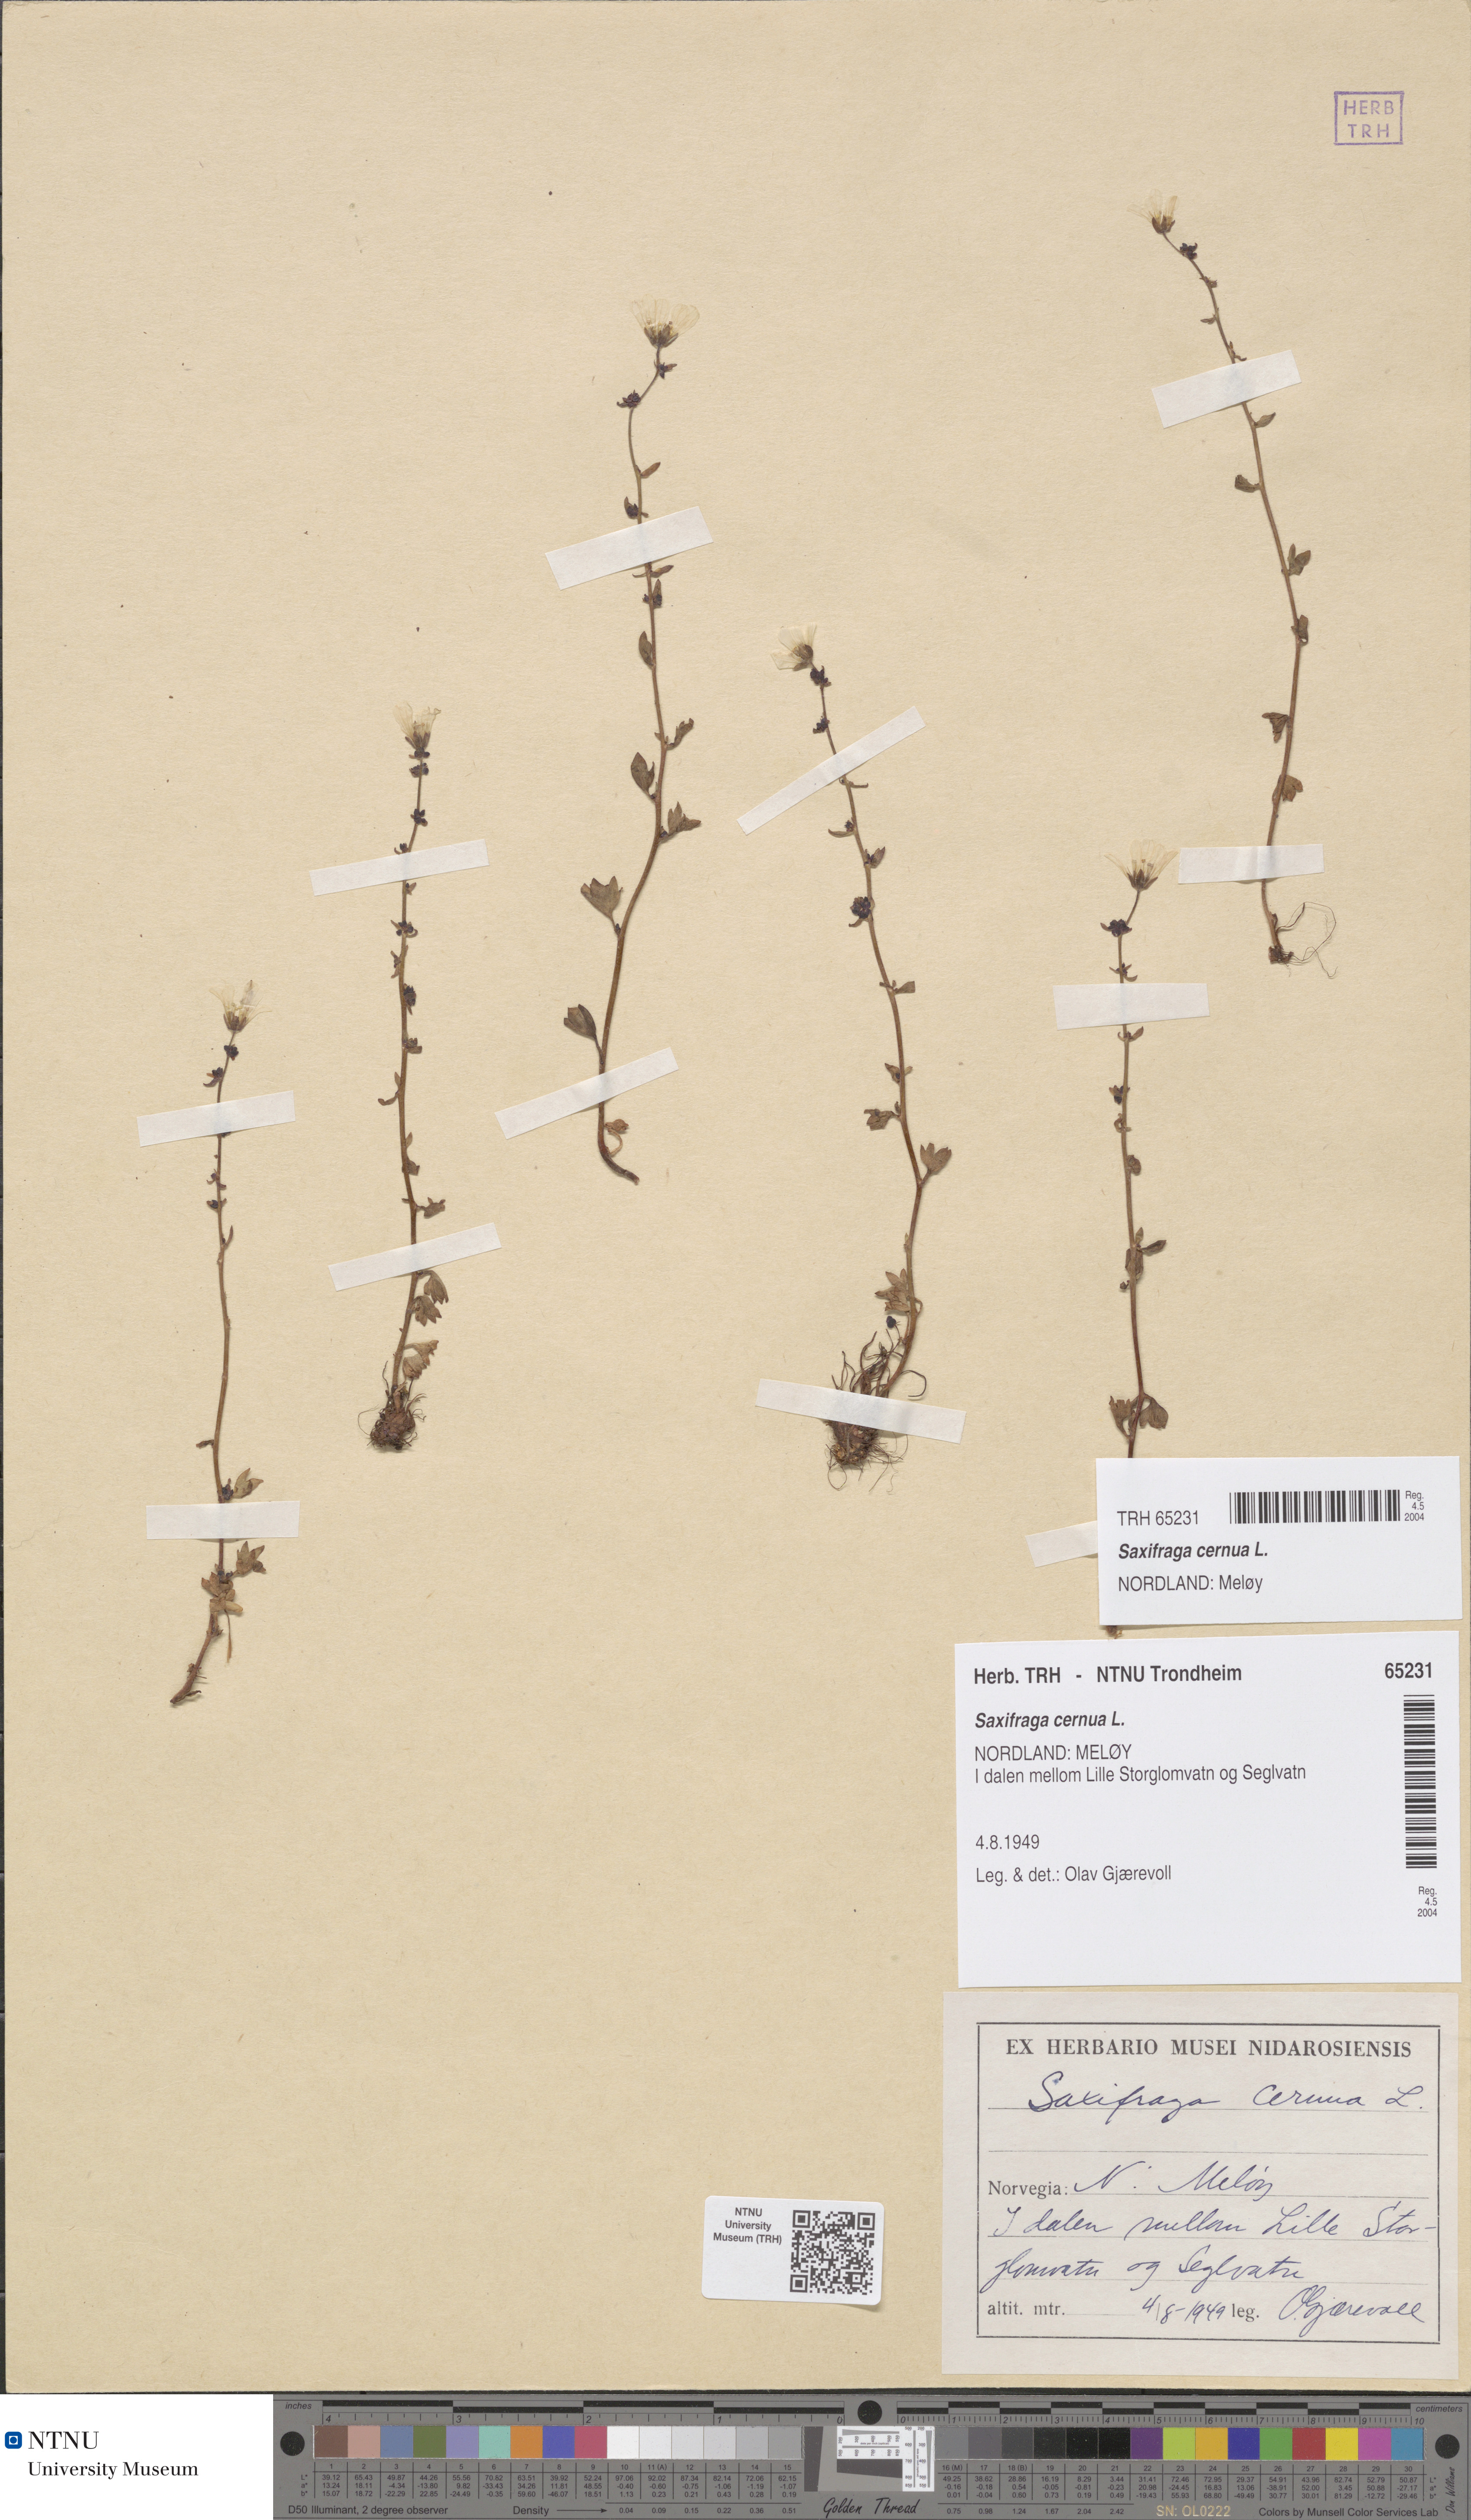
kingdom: Plantae
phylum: Tracheophyta
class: Magnoliopsida
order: Saxifragales
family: Saxifragaceae
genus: Saxifraga
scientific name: Saxifraga cernua
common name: Drooping saxifrage
